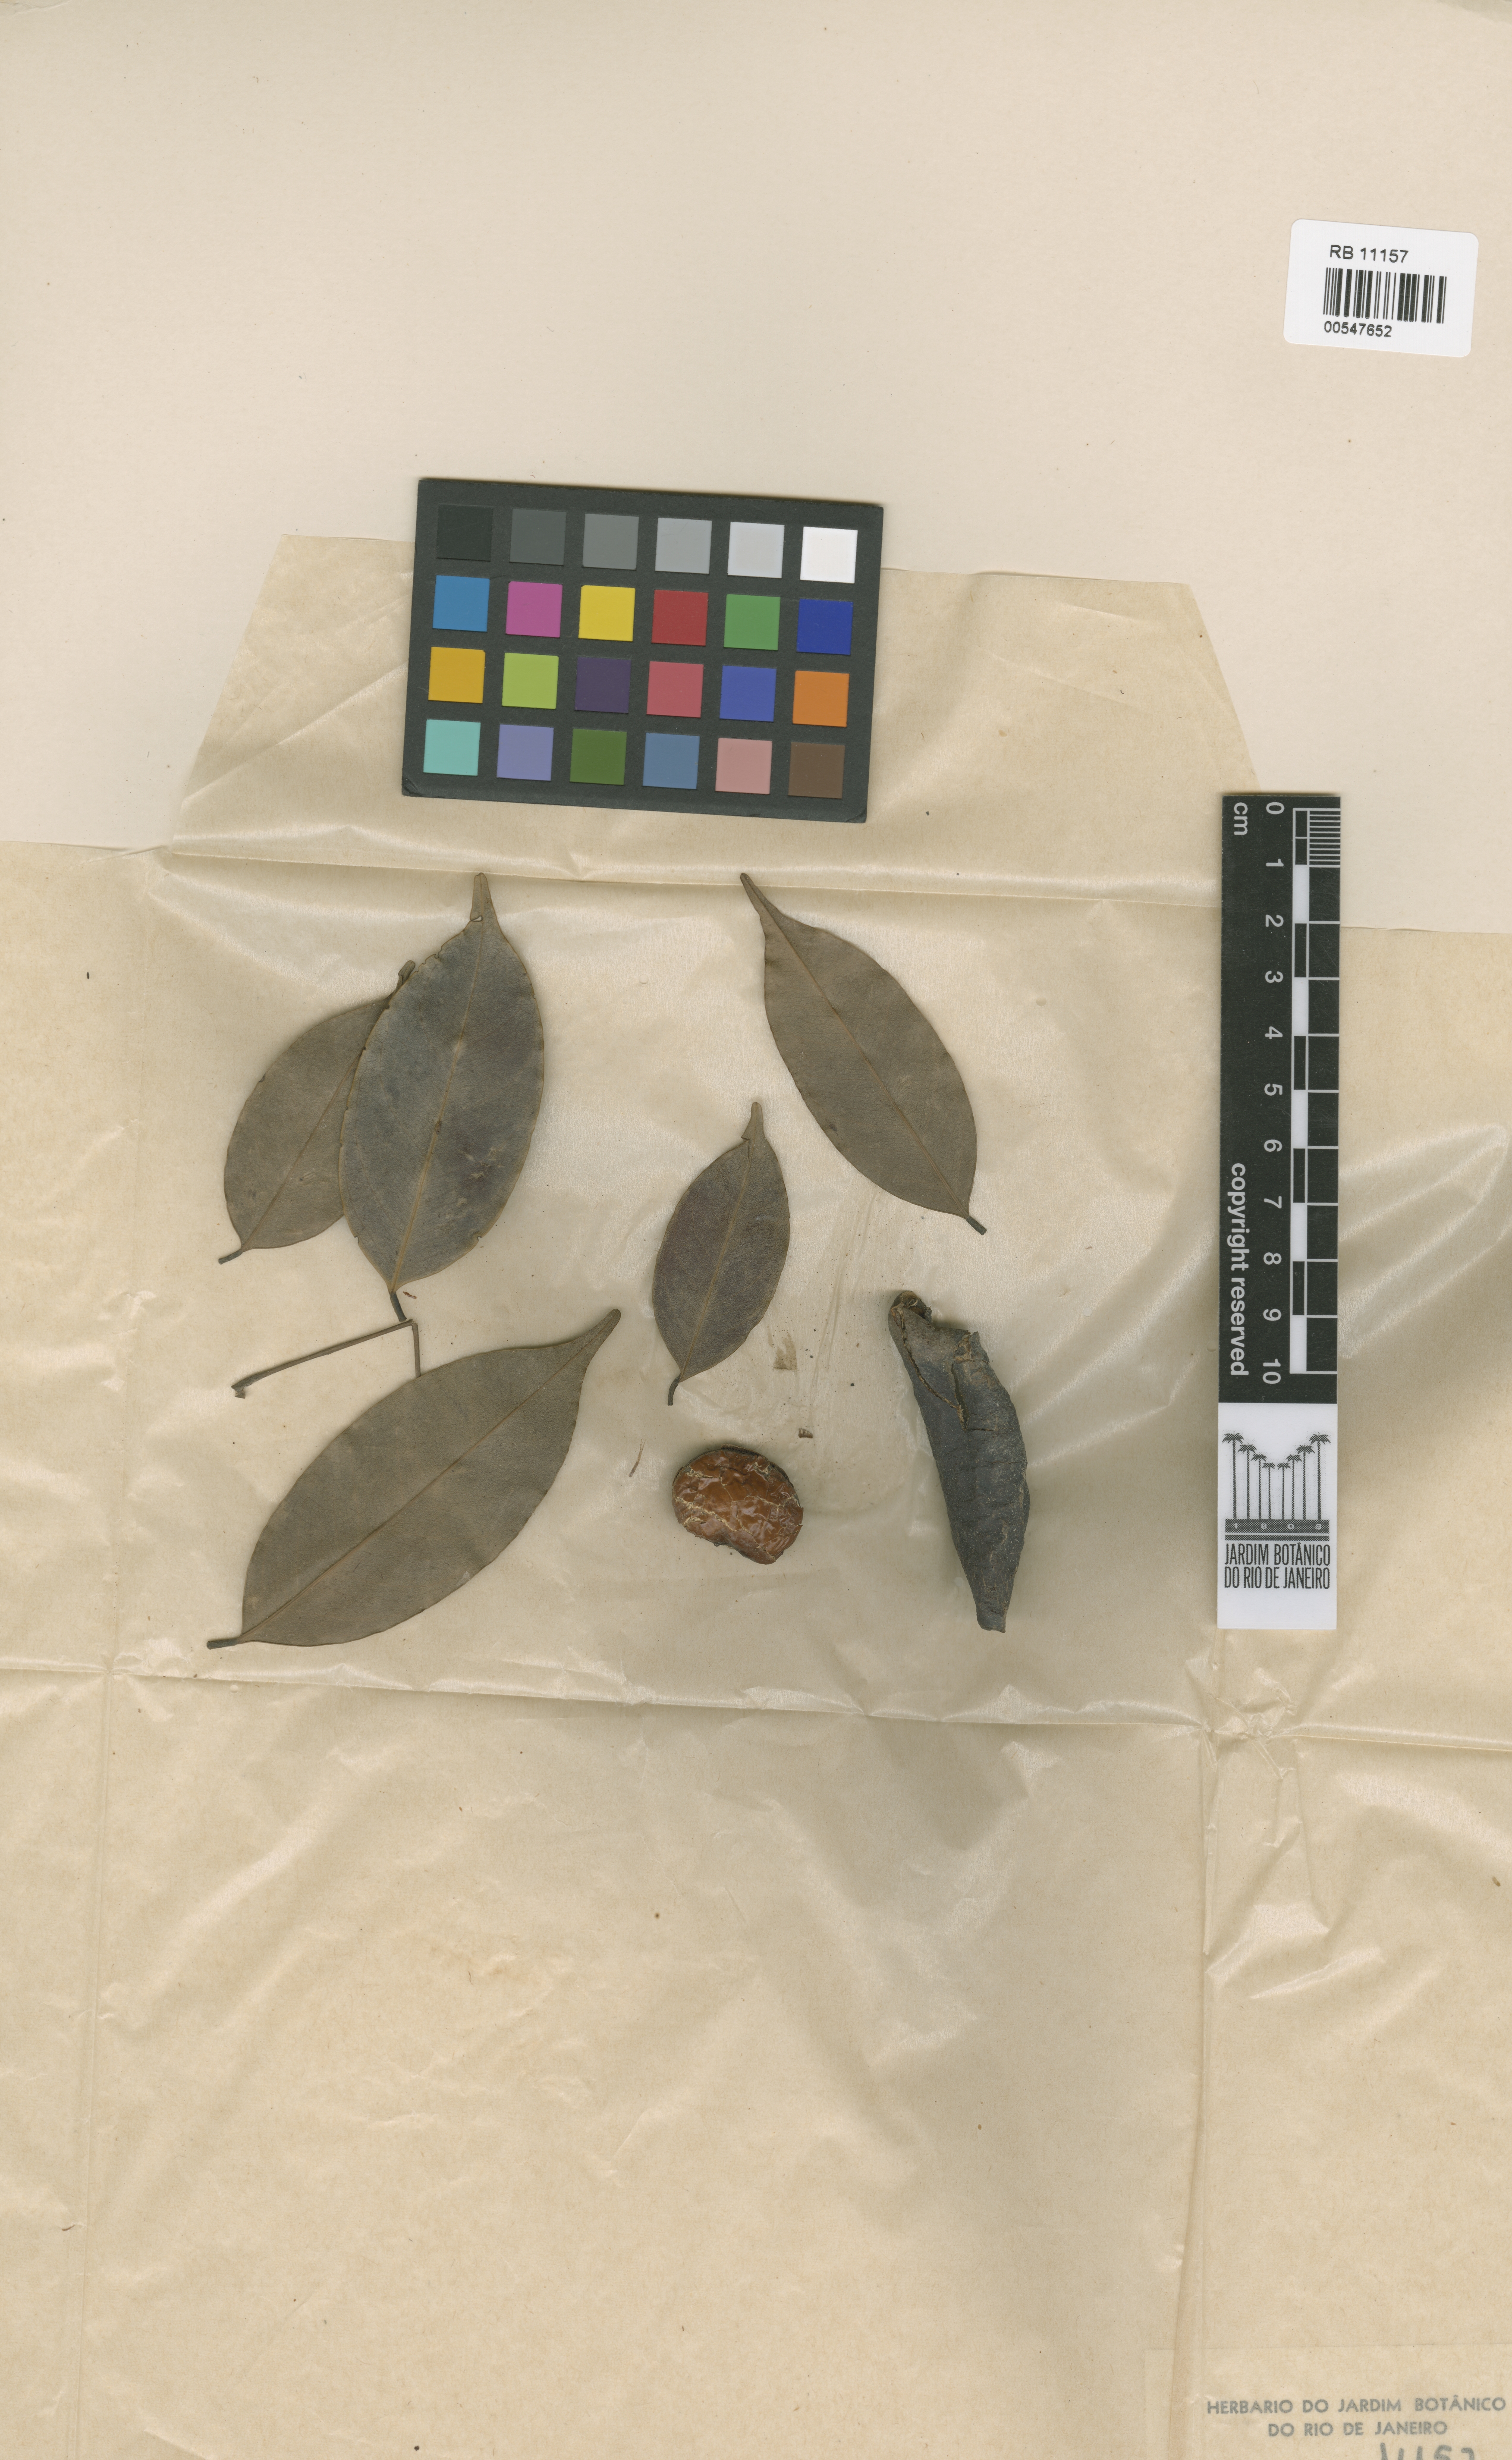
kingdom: Plantae
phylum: Tracheophyta
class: Magnoliopsida
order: Fabales
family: Fabaceae
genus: Swartzia
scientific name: Swartzia polyphylla
